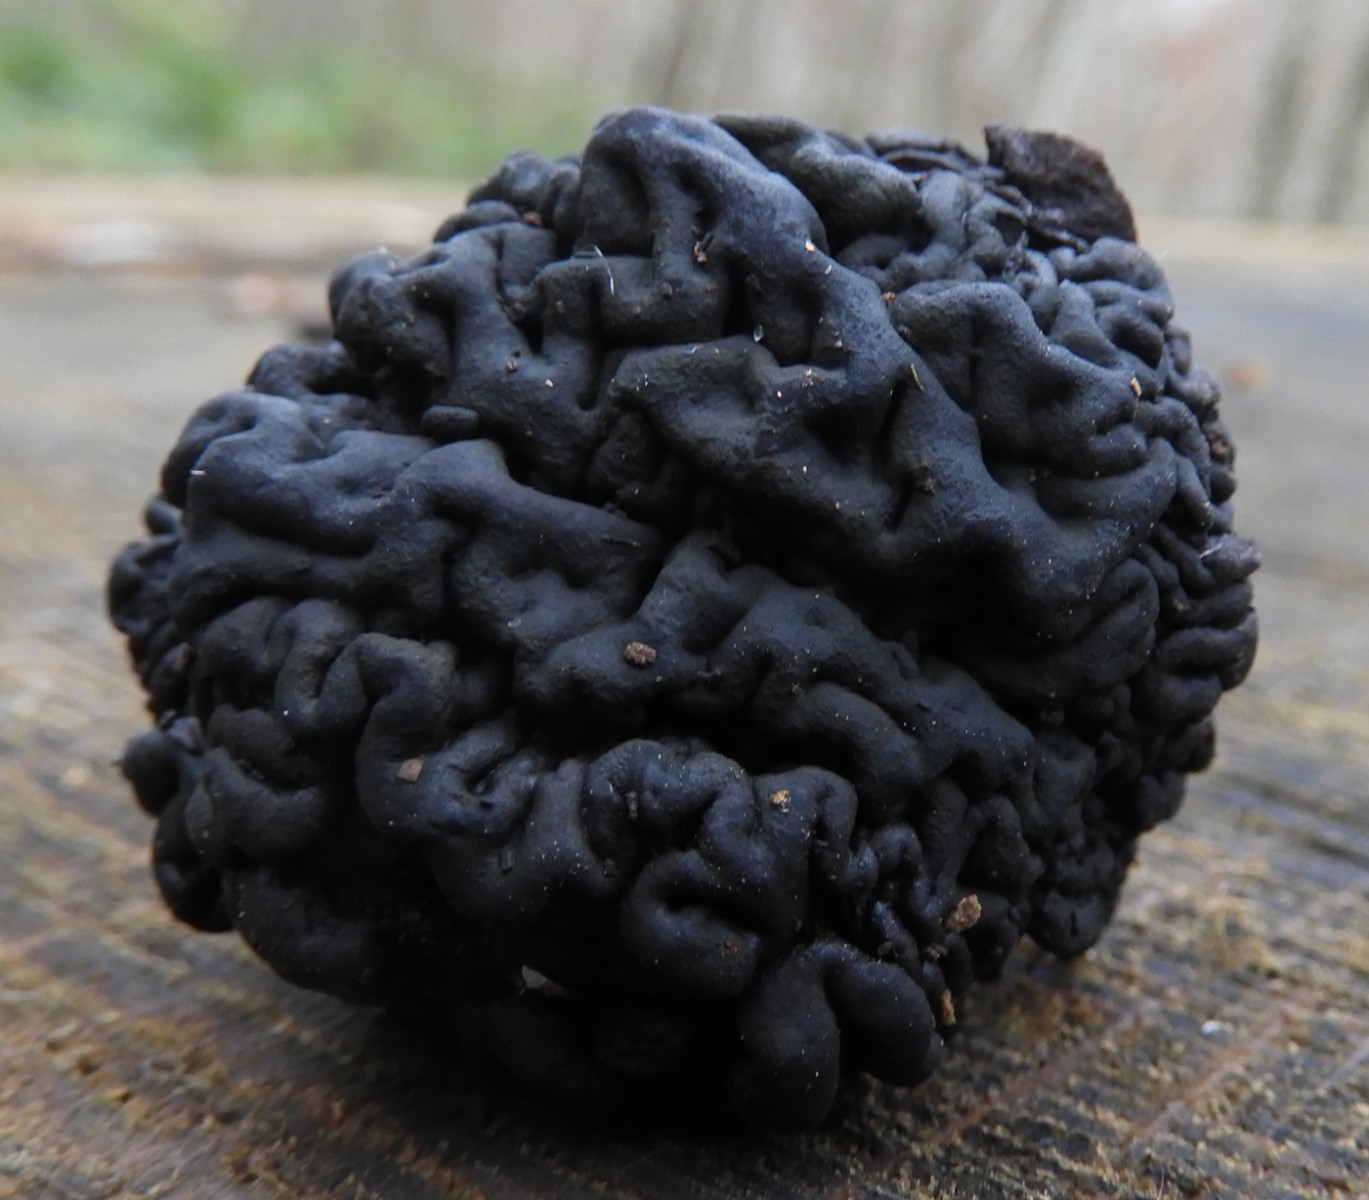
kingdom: Fungi
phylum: Basidiomycota
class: Agaricomycetes
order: Auriculariales
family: Auriculariaceae
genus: Exidia
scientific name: Exidia glandulosa
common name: ege-bævretop
